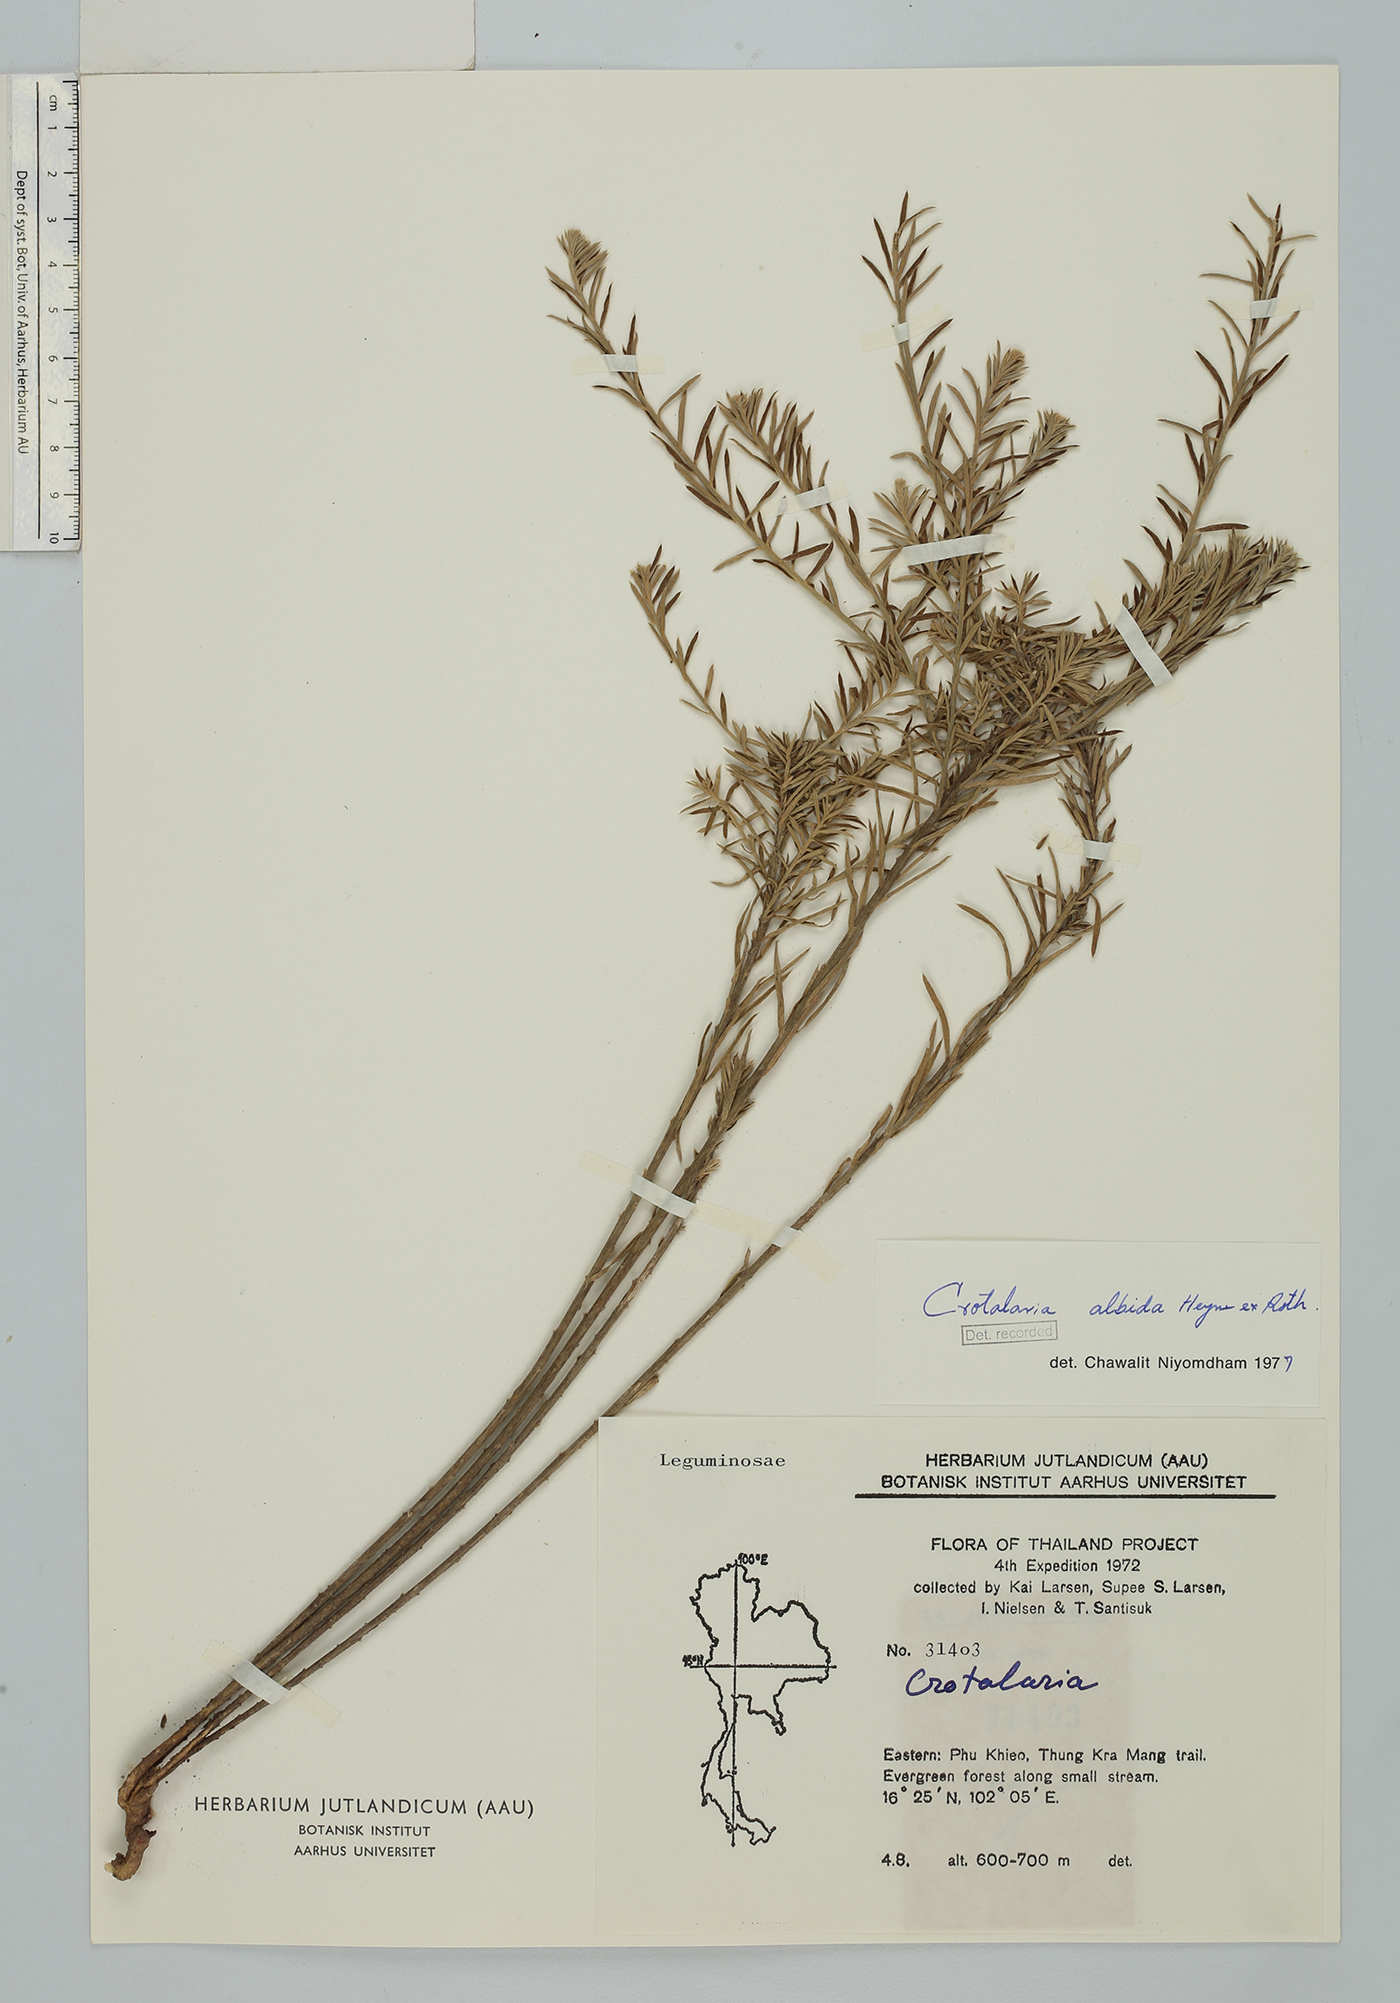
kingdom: Plantae
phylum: Tracheophyta
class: Magnoliopsida
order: Fabales
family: Fabaceae
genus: Crotalaria
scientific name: Crotalaria albida
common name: Taiwan crotalaria
